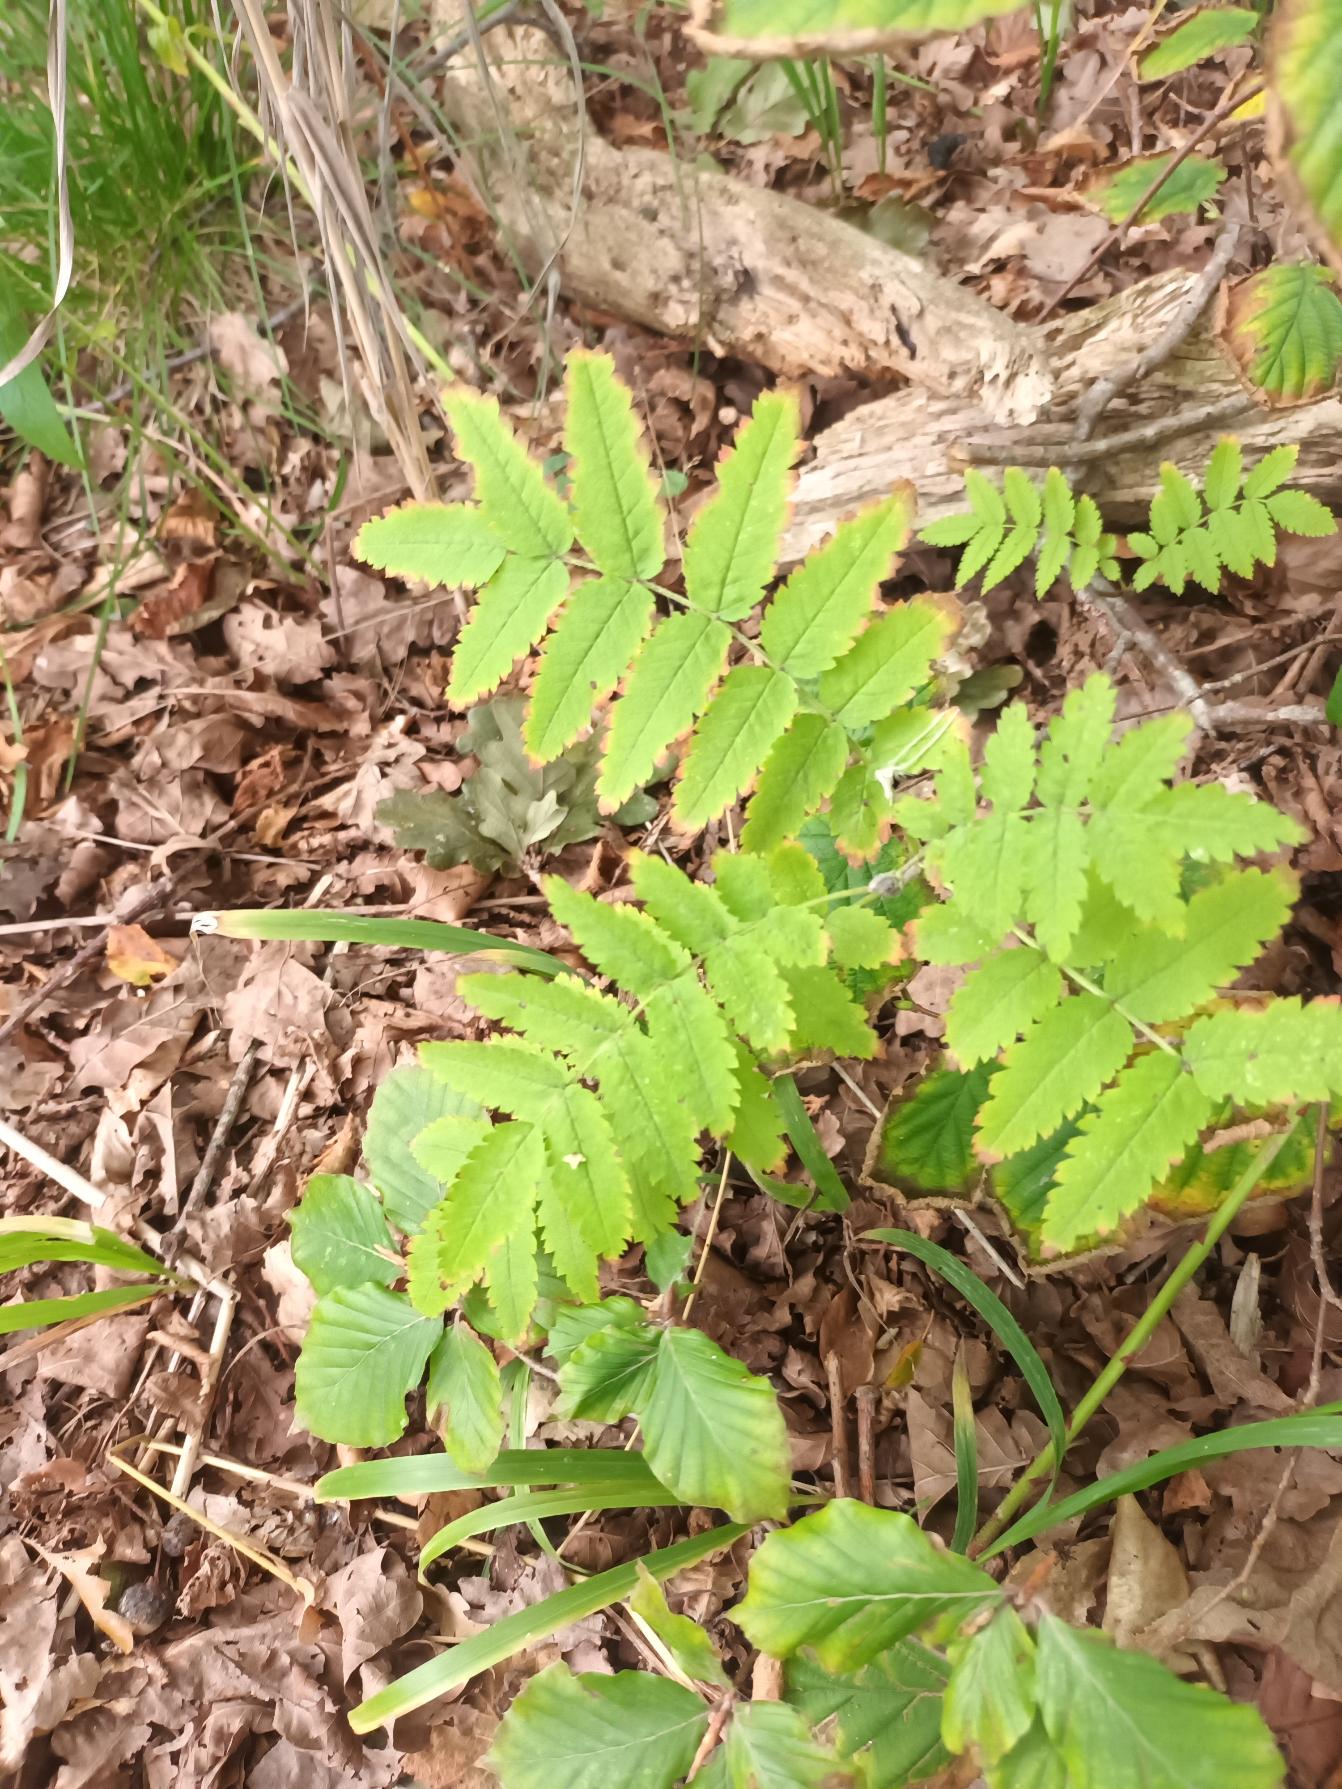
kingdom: Plantae
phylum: Tracheophyta
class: Magnoliopsida
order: Rosales
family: Rosaceae
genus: Sorbus
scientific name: Sorbus aucuparia
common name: Almindelig røn
